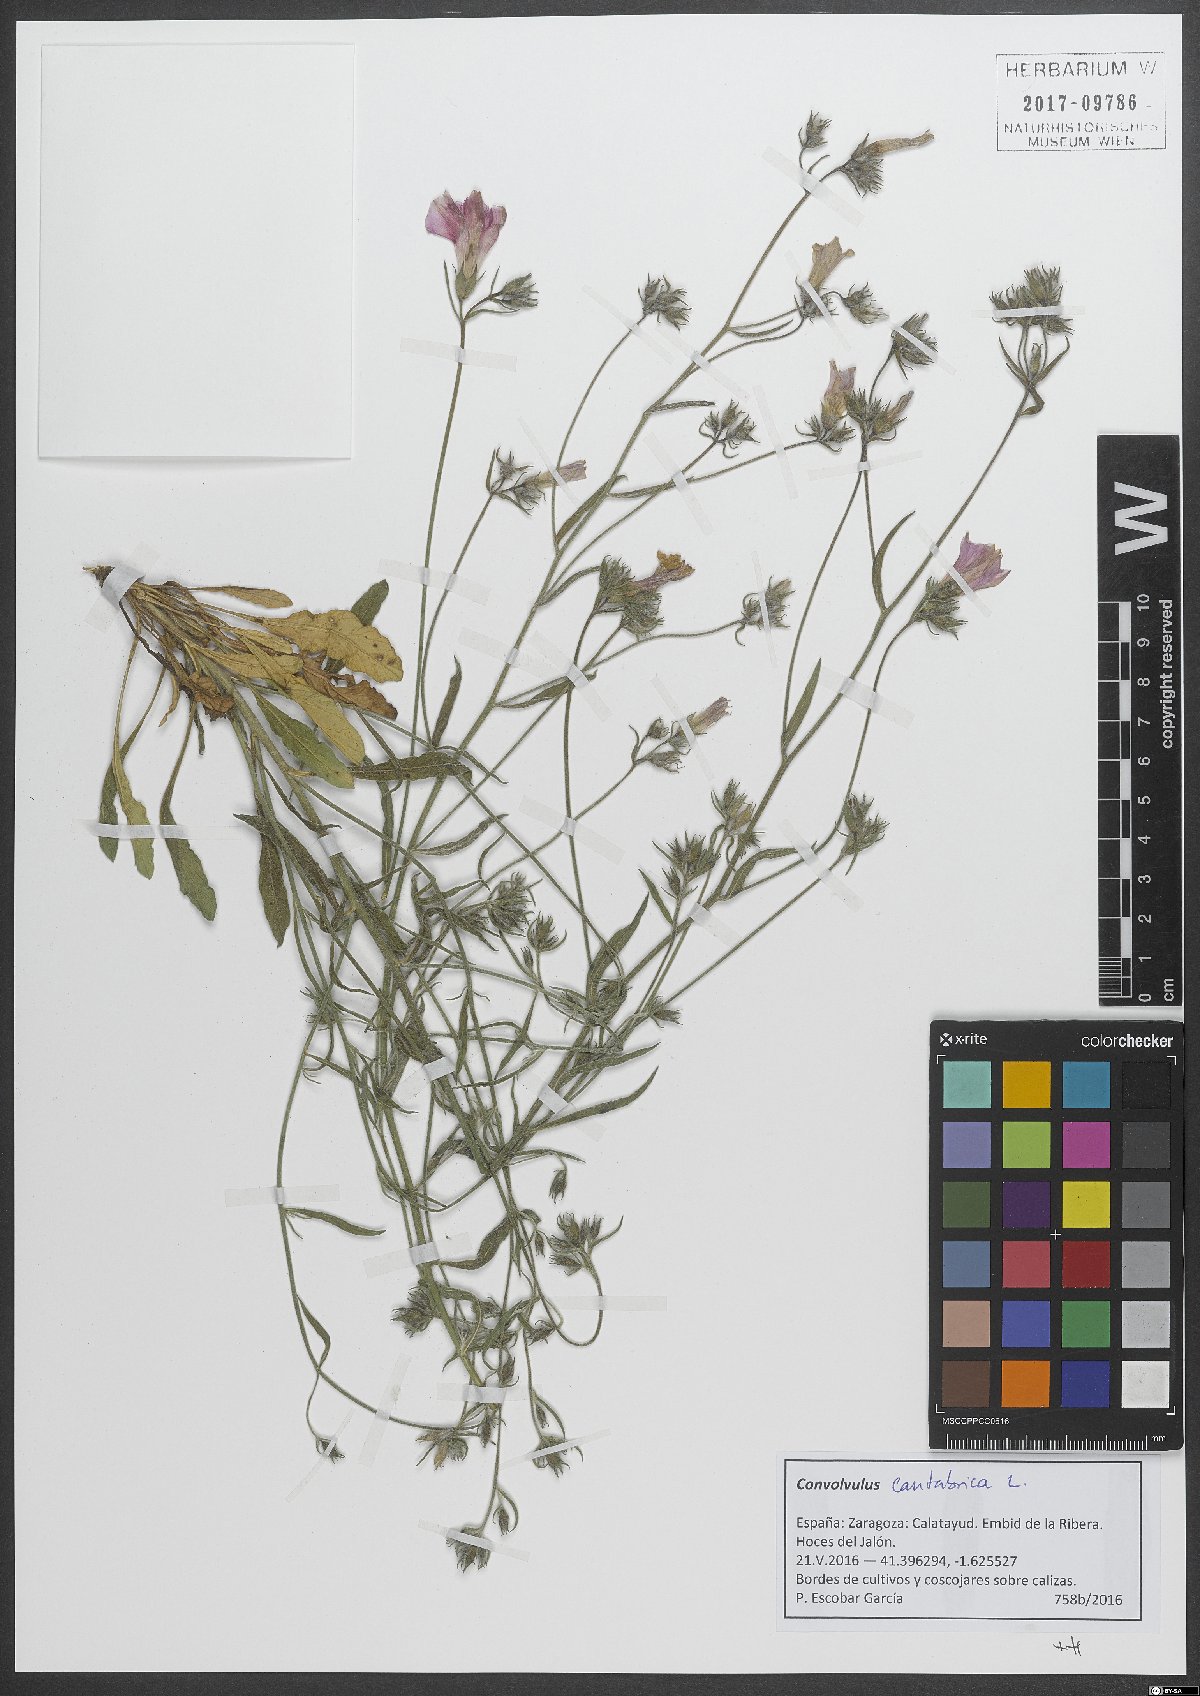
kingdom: Plantae
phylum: Tracheophyta
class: Magnoliopsida
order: Solanales
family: Convolvulaceae
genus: Convolvulus
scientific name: Convolvulus cantabrica
